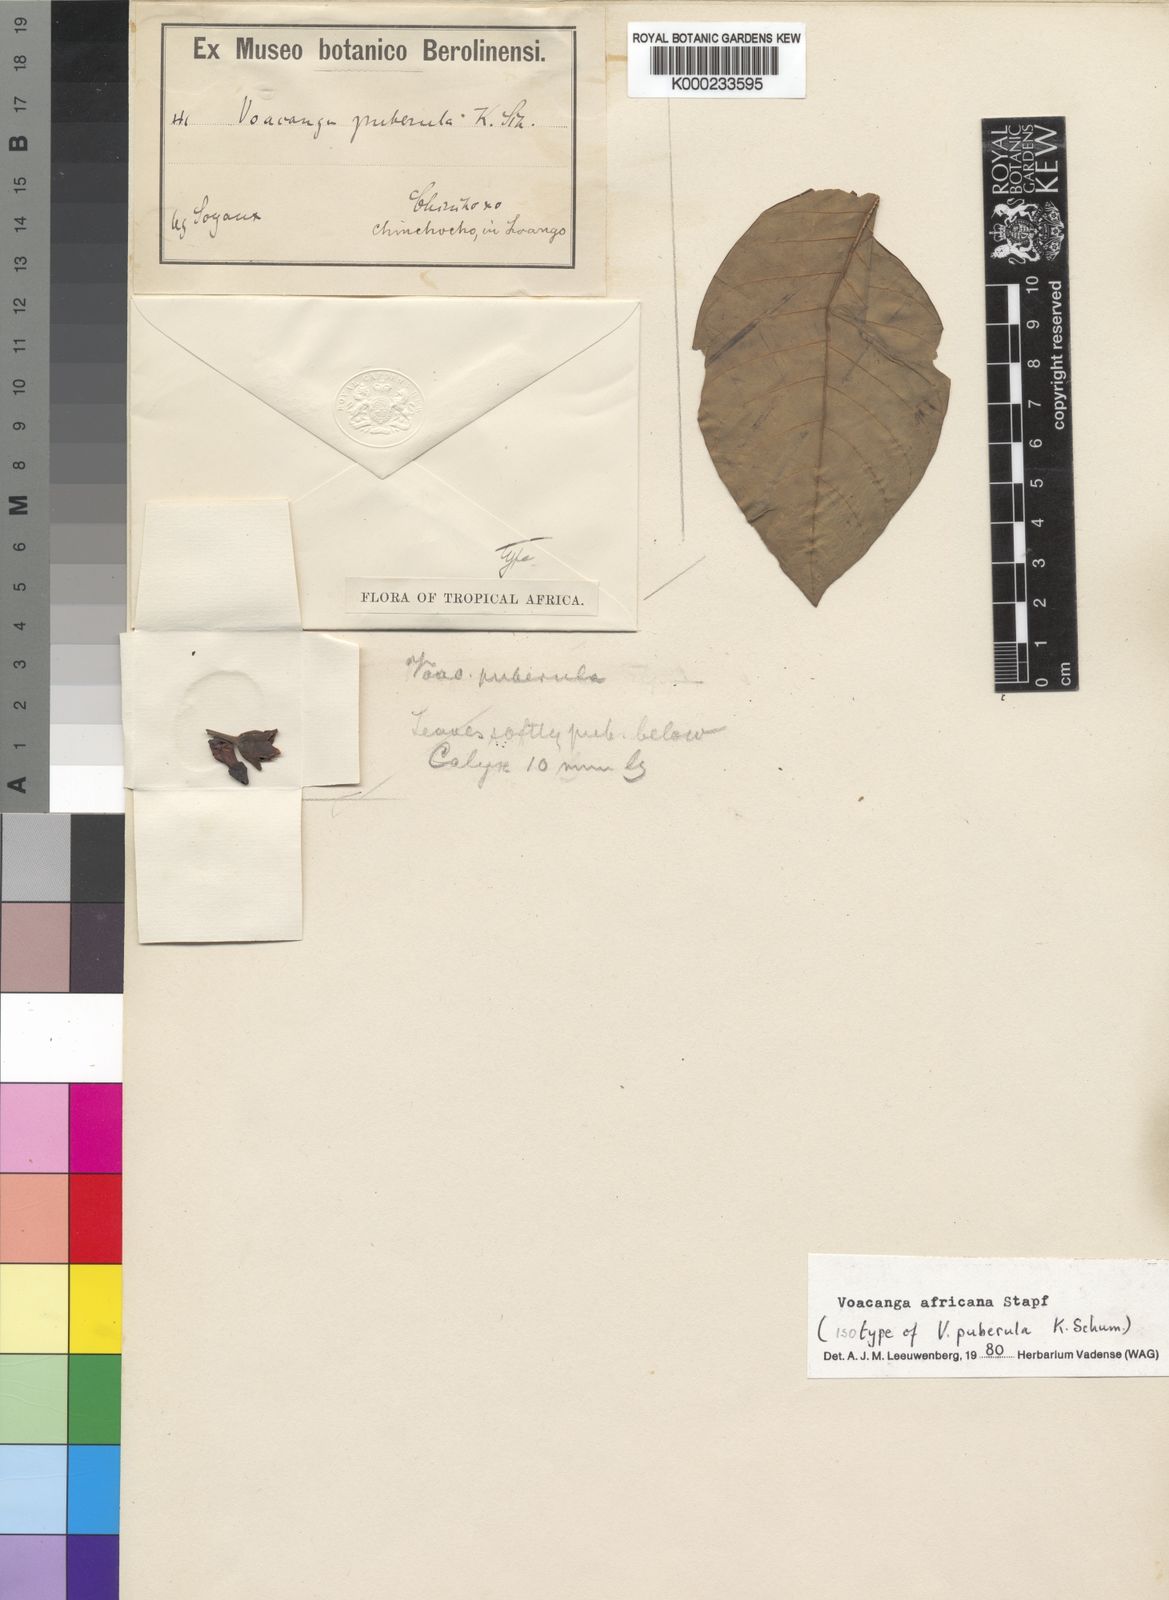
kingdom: Plantae
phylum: Tracheophyta
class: Magnoliopsida
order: Gentianales
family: Apocynaceae
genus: Voacanga
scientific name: Voacanga africana
